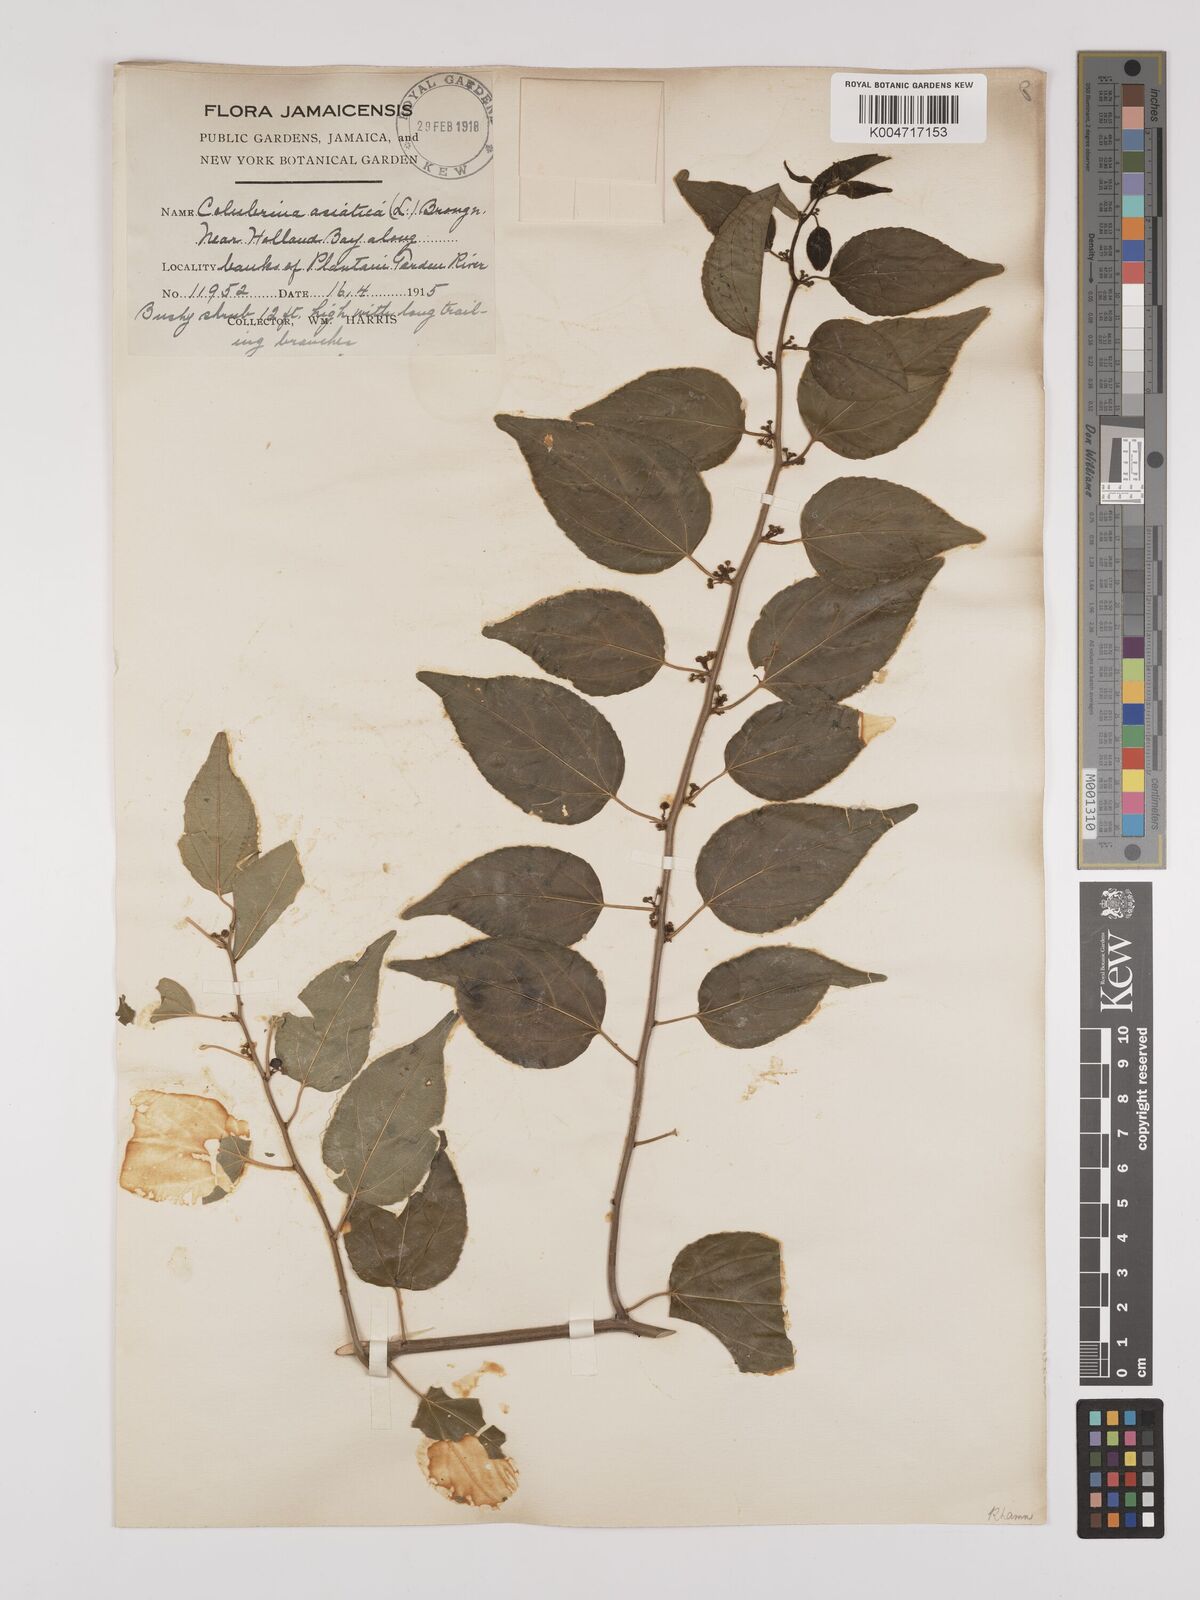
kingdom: Plantae
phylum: Tracheophyta
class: Magnoliopsida
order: Rosales
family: Rhamnaceae
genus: Colubrina
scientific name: Colubrina asiatica
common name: Asian nakedwood
